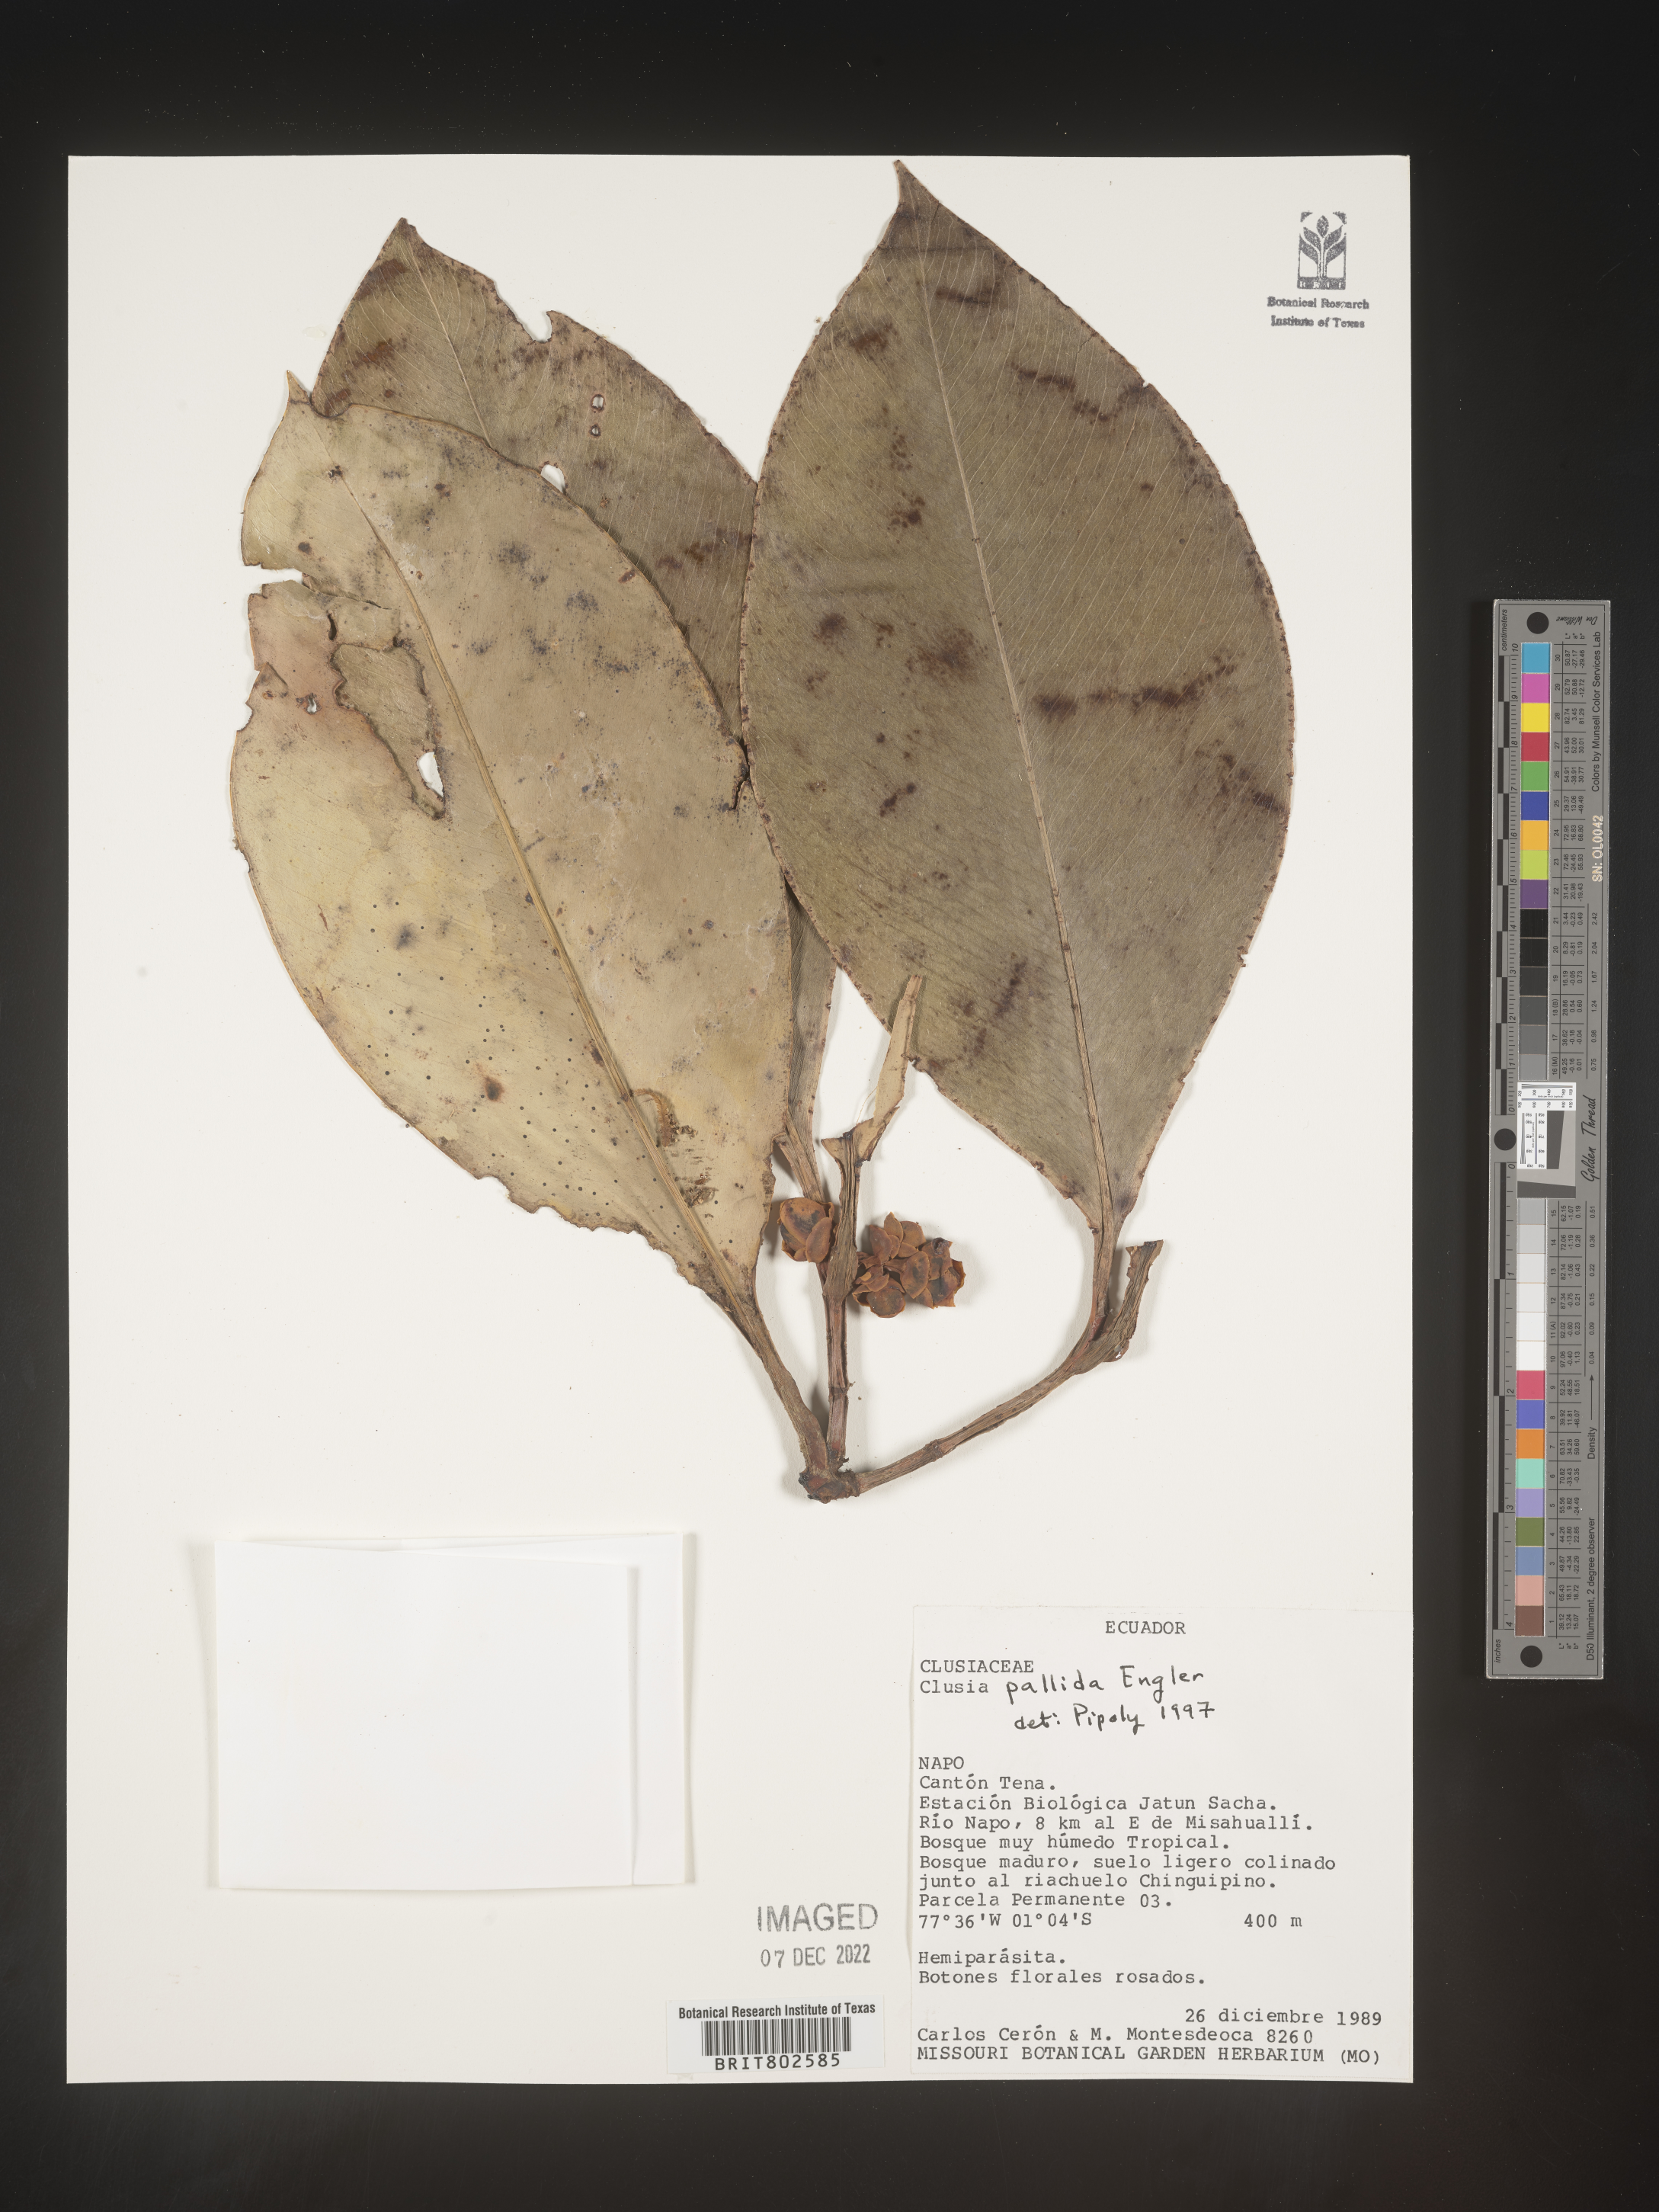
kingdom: Plantae
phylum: Tracheophyta
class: Magnoliopsida
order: Malpighiales
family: Clusiaceae
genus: Clusia
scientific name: Clusia pallida
